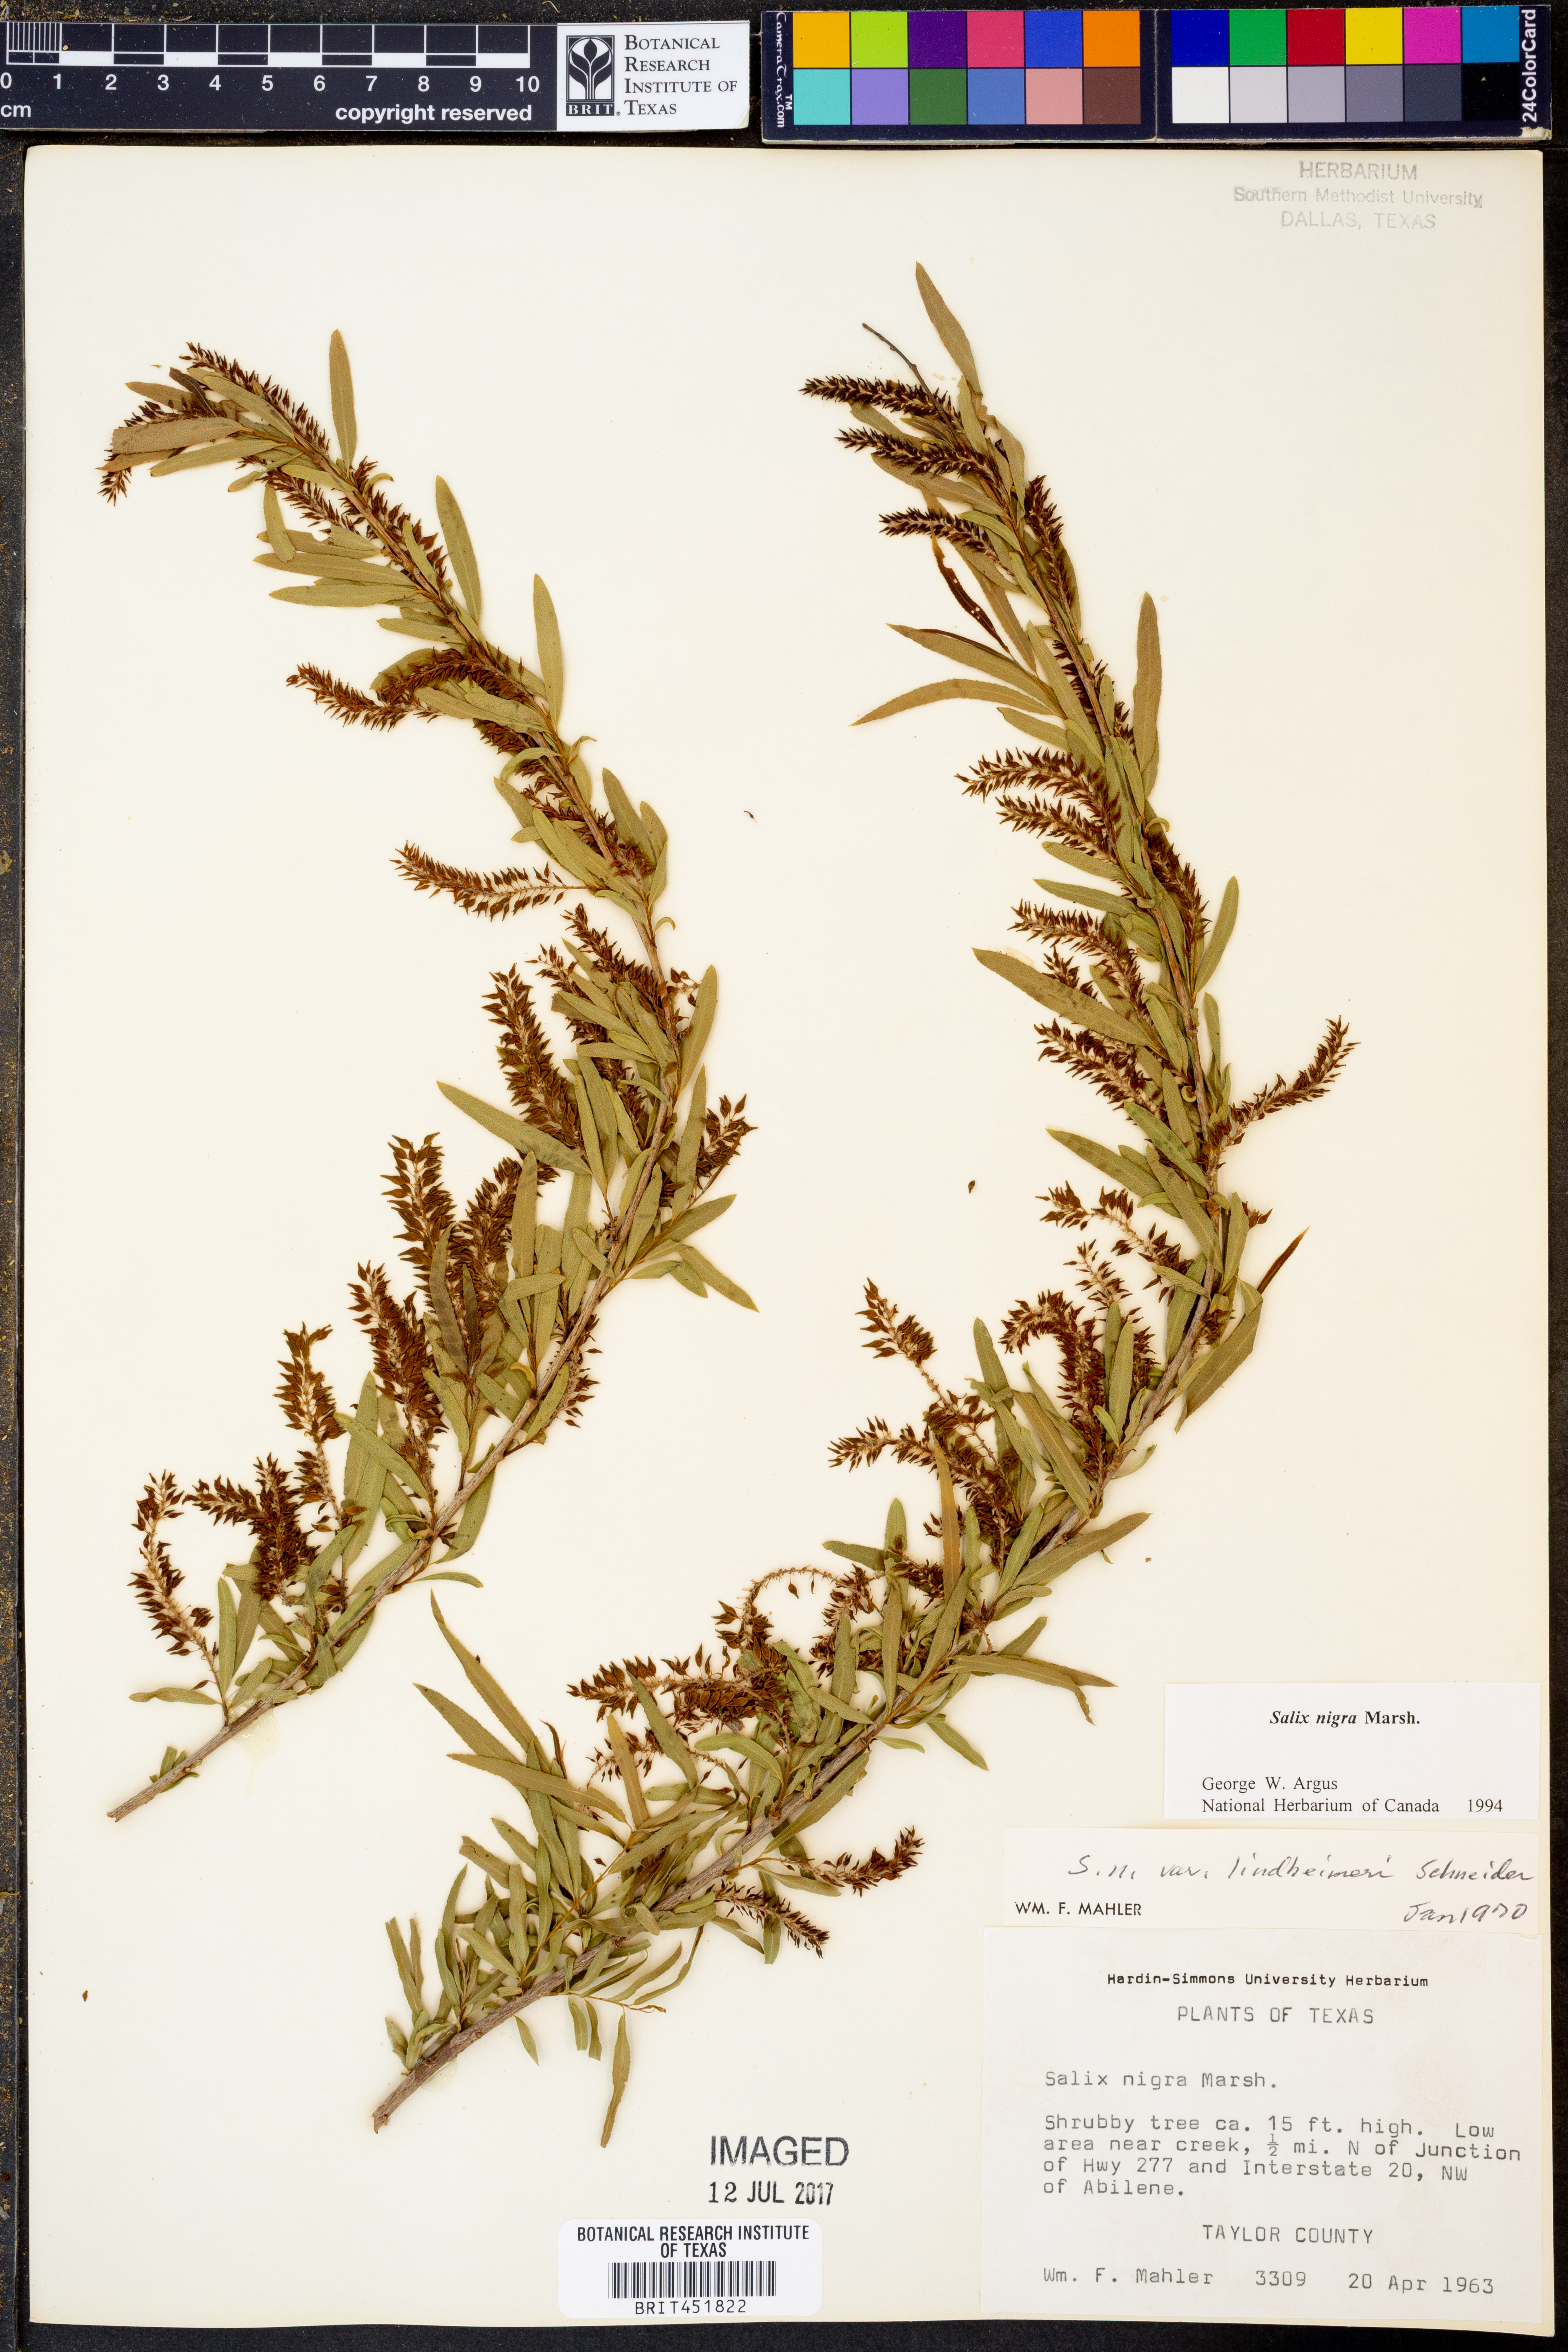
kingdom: Plantae
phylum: Tracheophyta
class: Magnoliopsida
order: Malpighiales
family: Salicaceae
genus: Salix
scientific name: Salix nigra
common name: Black willow
